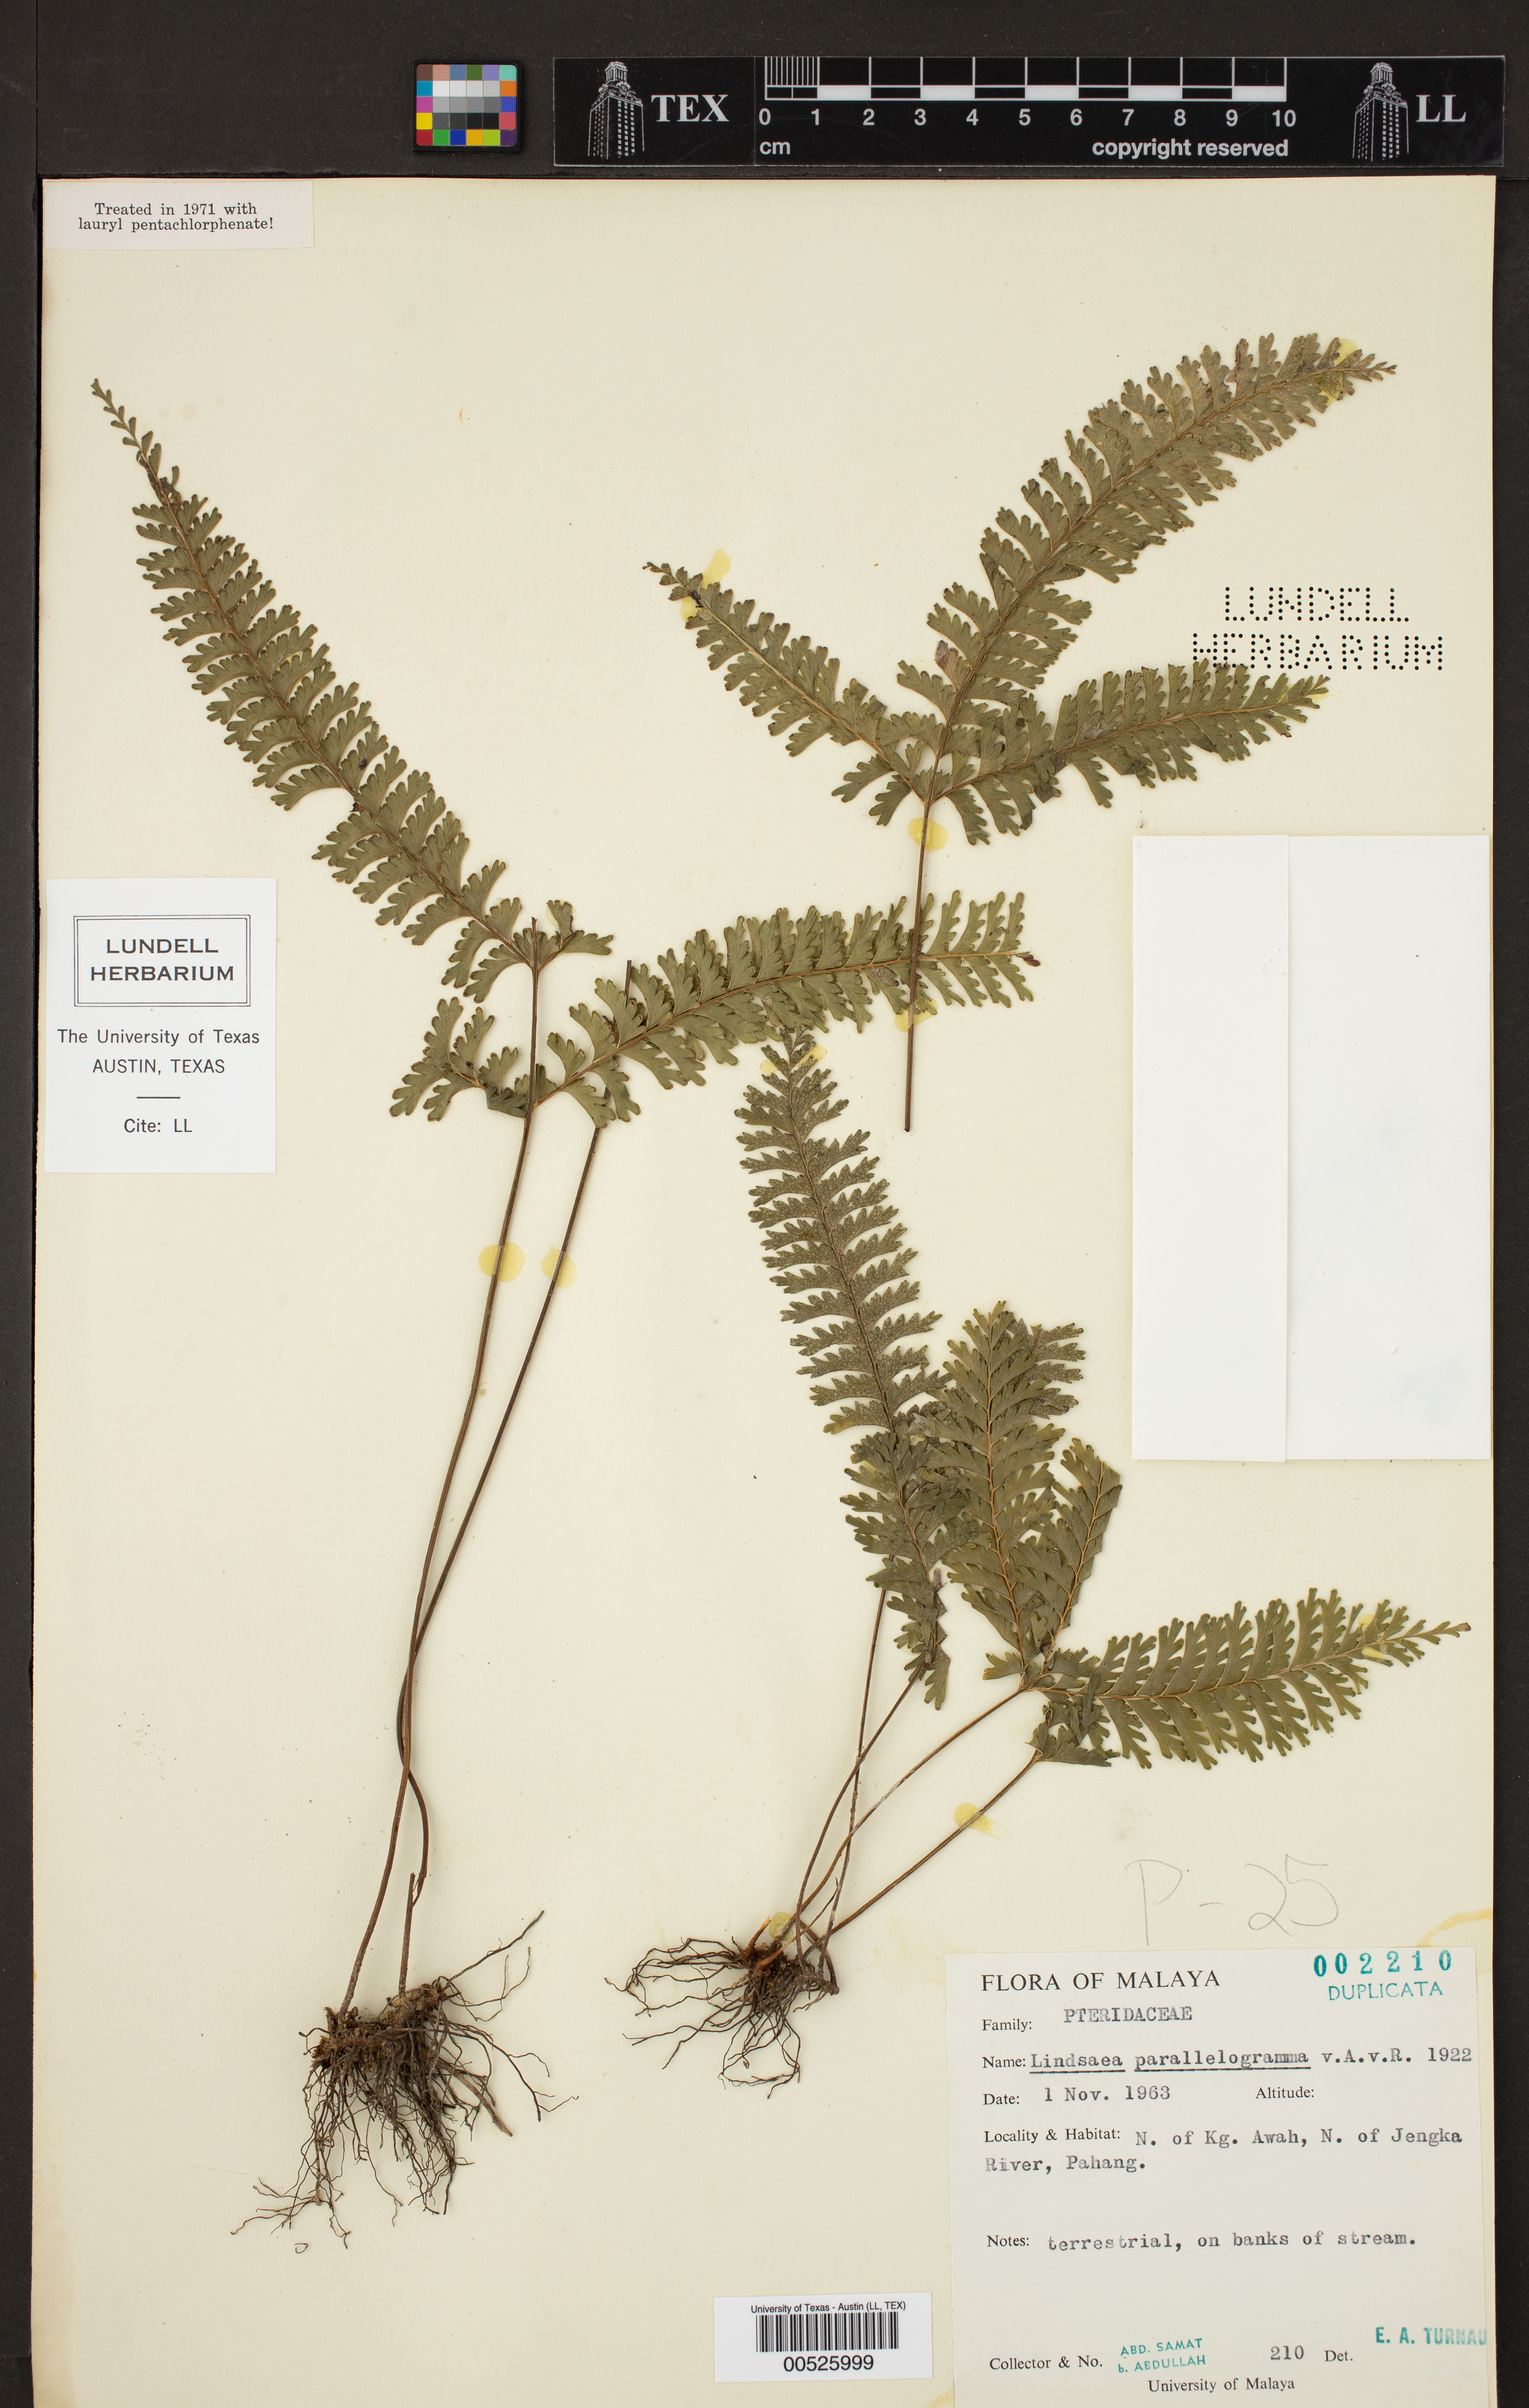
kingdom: Plantae
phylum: Tracheophyta
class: Polypodiopsida
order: Polypodiales
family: Lindsaeaceae
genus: Lindsaea
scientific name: Lindsaea parallelogramma
